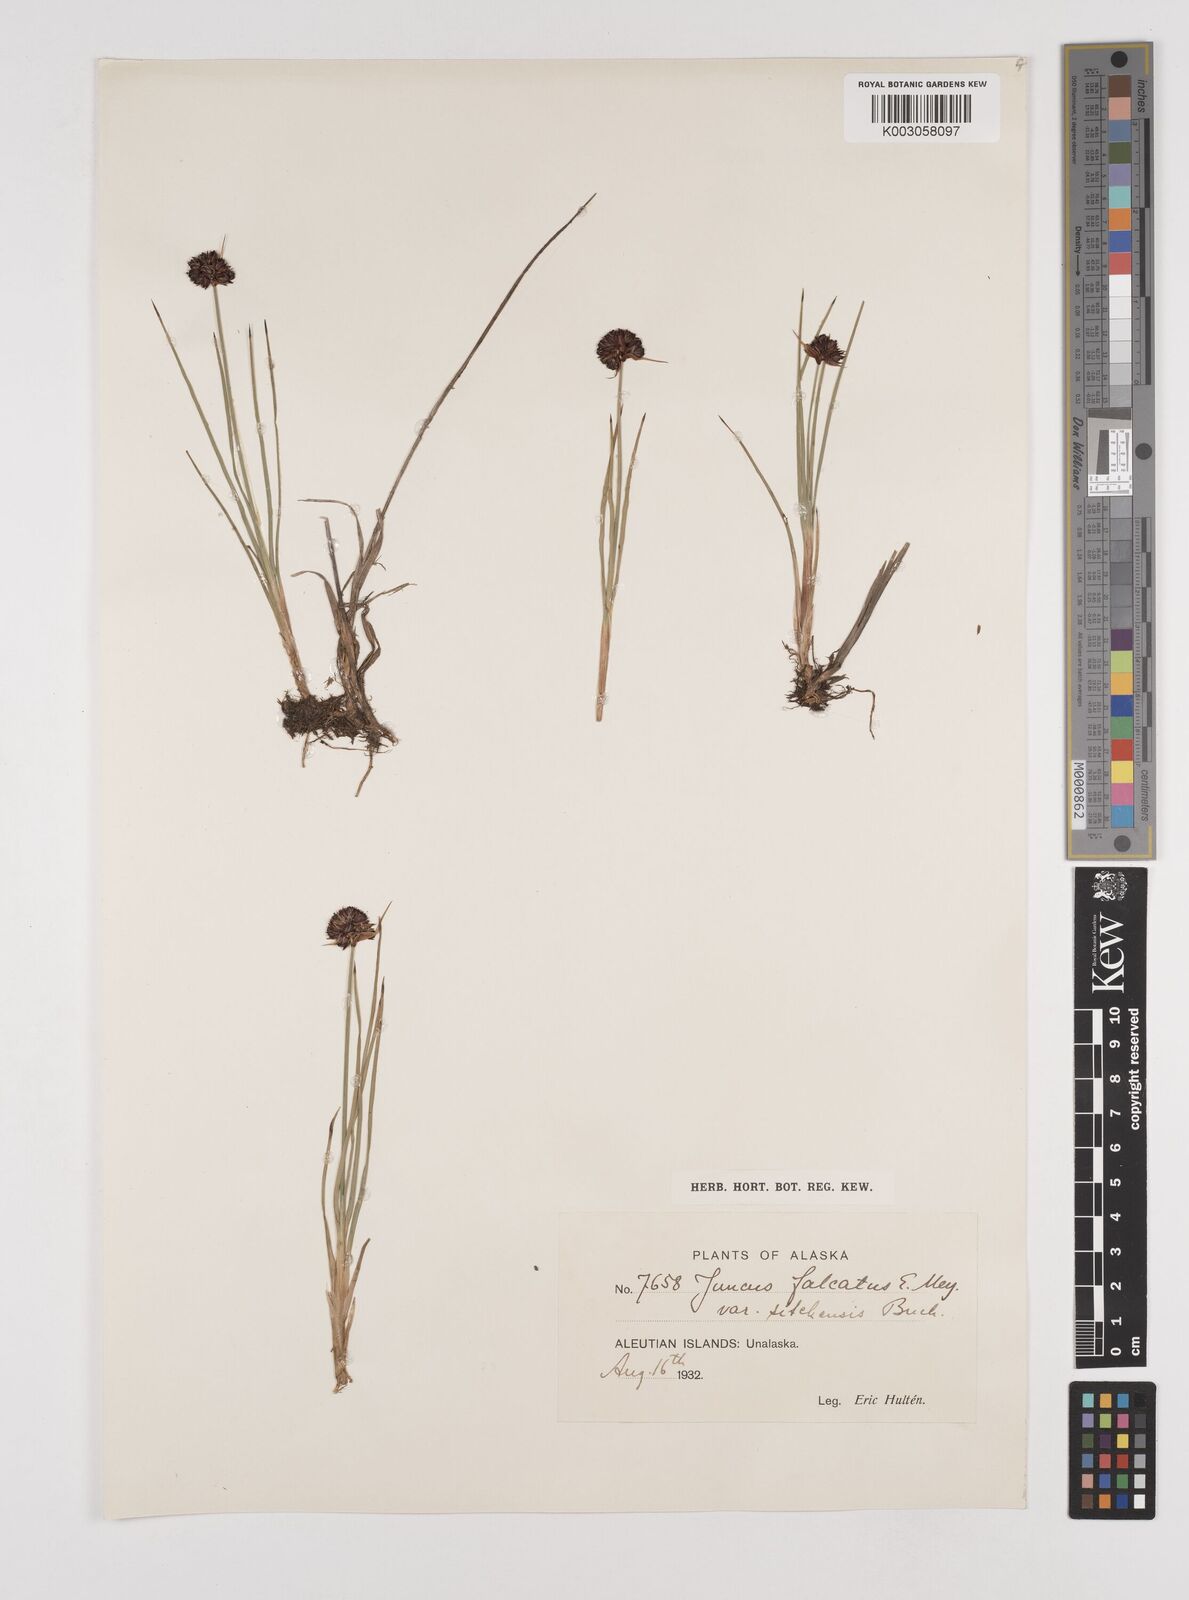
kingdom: Plantae
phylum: Tracheophyta
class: Liliopsida
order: Poales
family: Juncaceae
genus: Juncus
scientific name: Juncus falcatus
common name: Sickle-leaf rush
